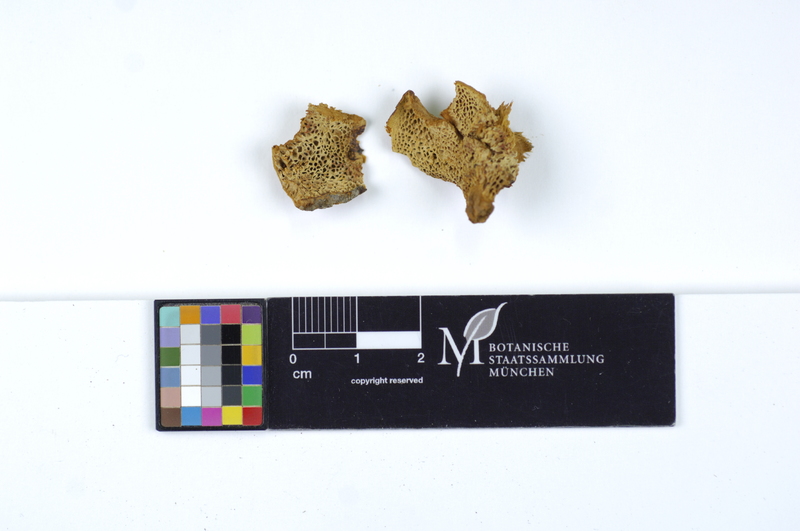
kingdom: Fungi
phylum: Basidiomycota
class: Agaricomycetes
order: Hymenochaetales
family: Hymenochaetaceae
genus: Coltricia
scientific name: Coltricia montagnei
